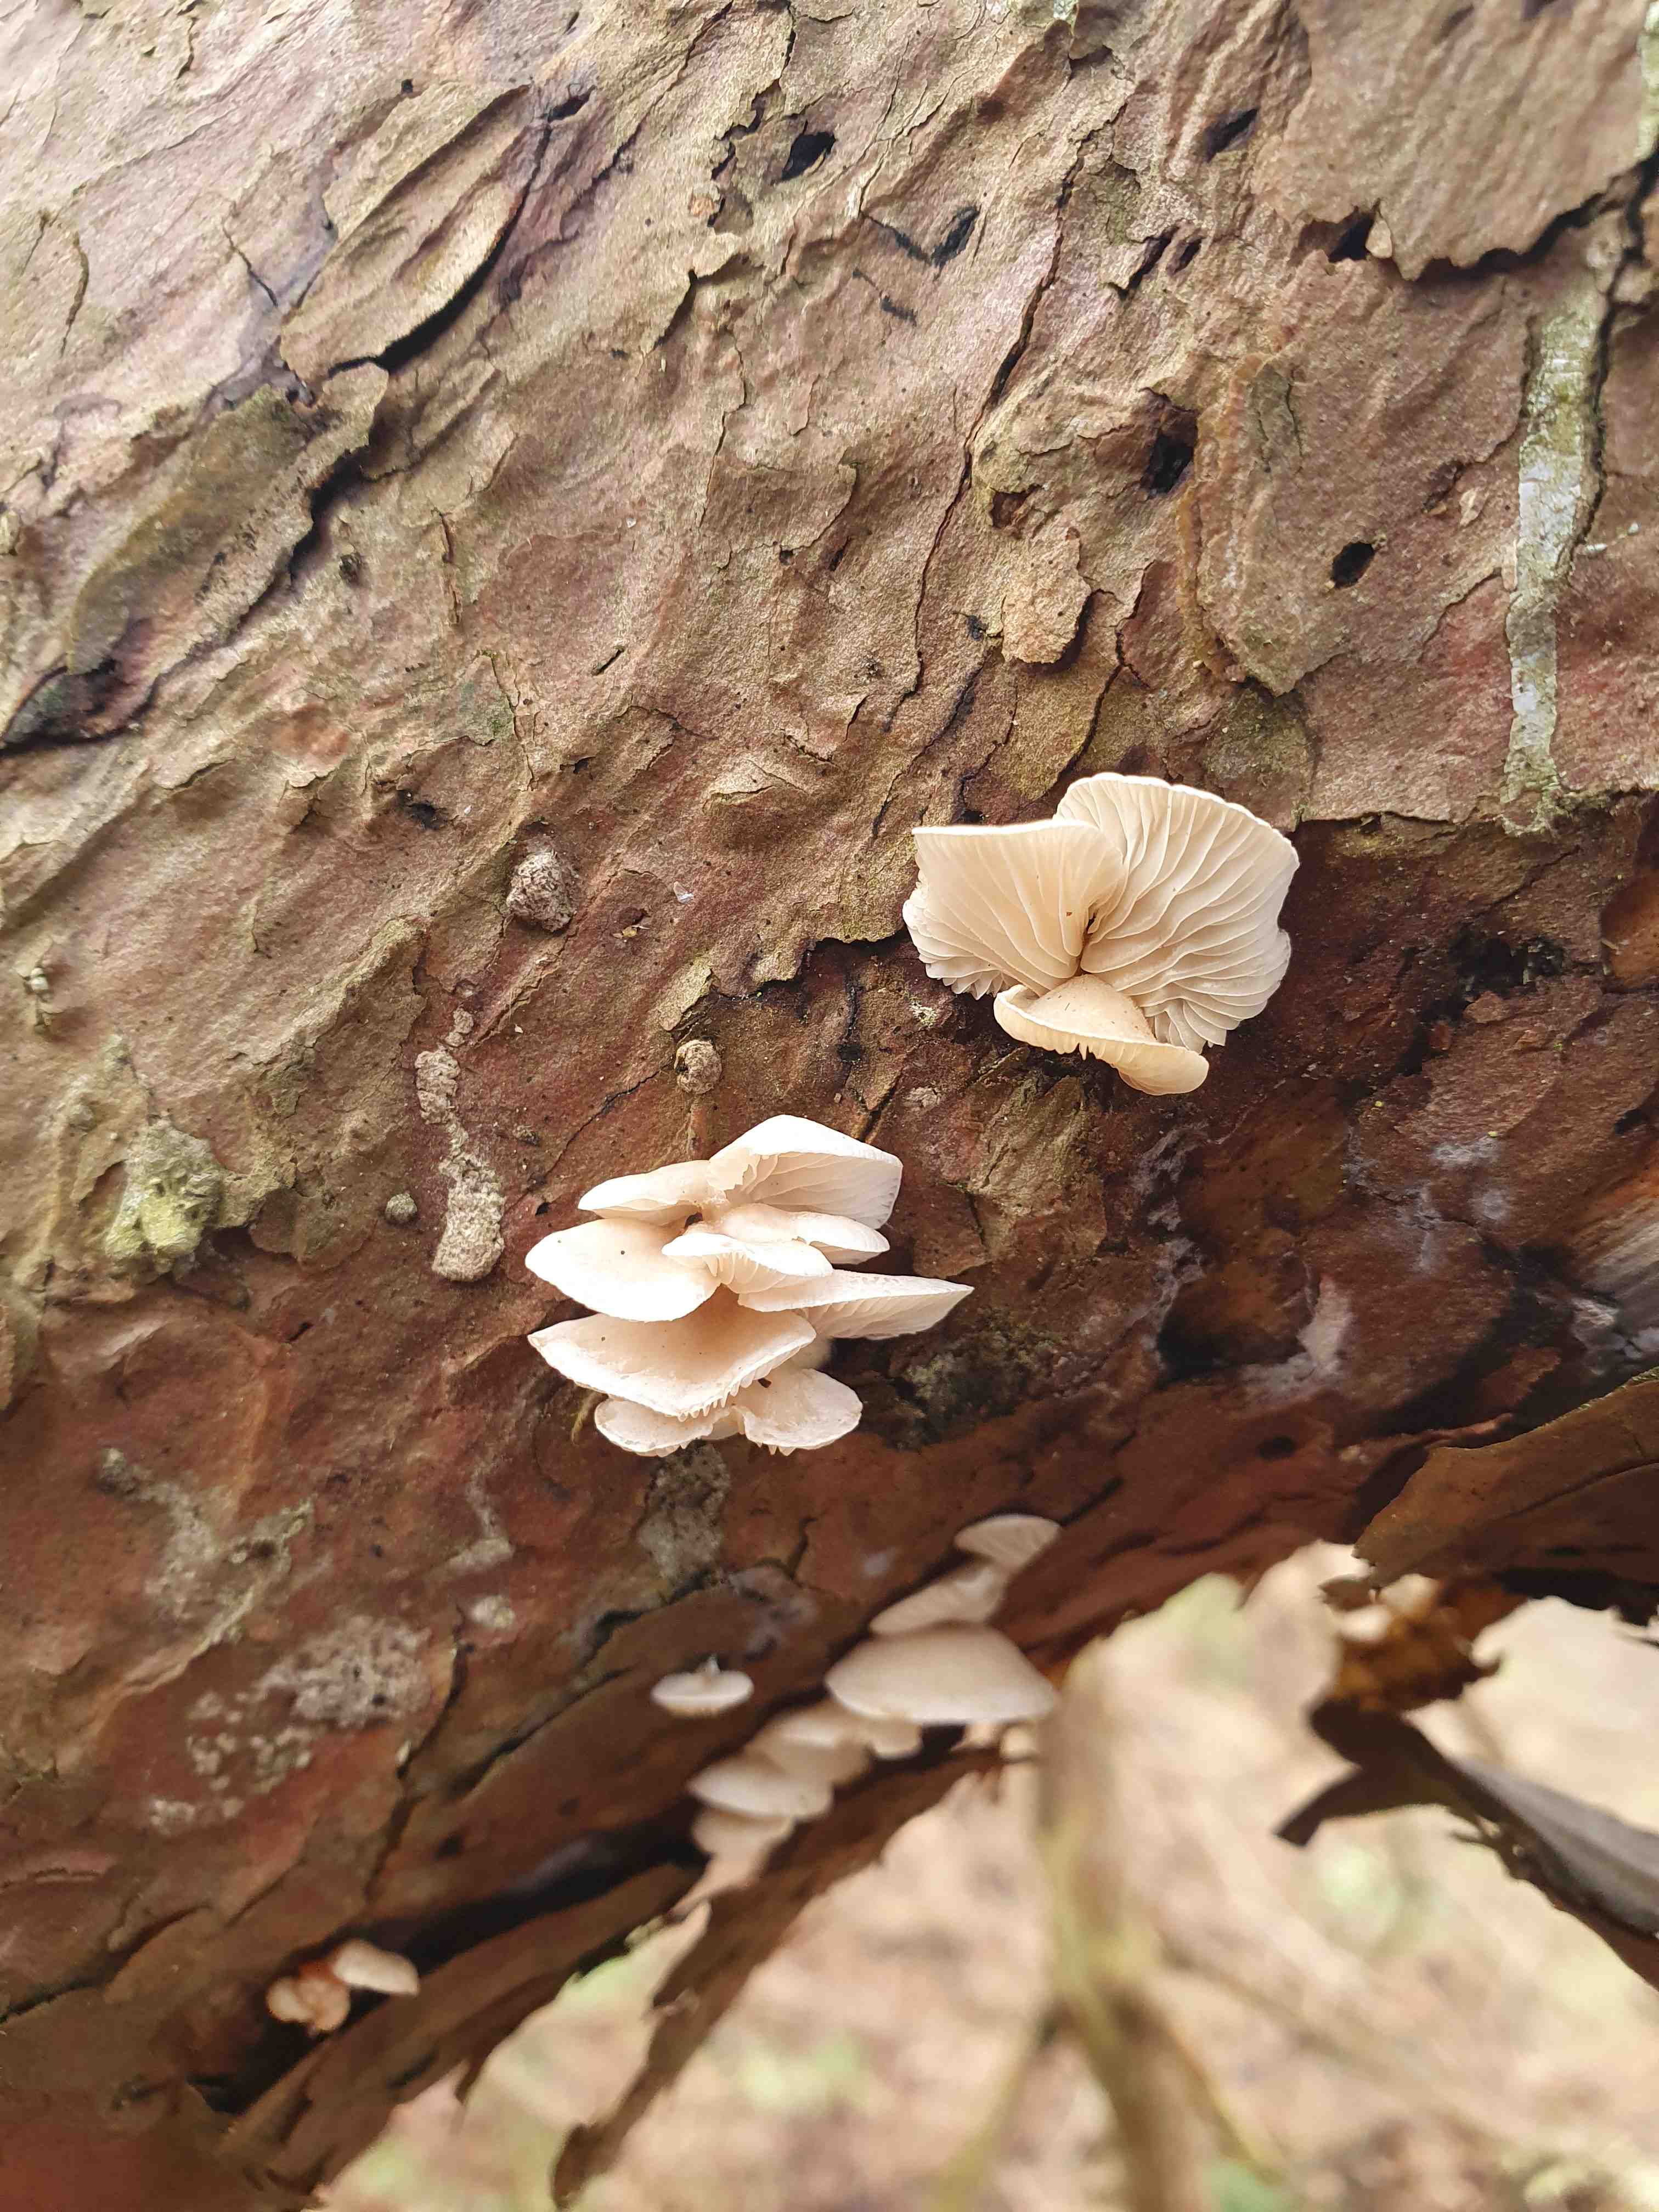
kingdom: Fungi
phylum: Basidiomycota
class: Agaricomycetes
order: Agaricales
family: Crepidotaceae
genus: Crepidotus
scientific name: Crepidotus
